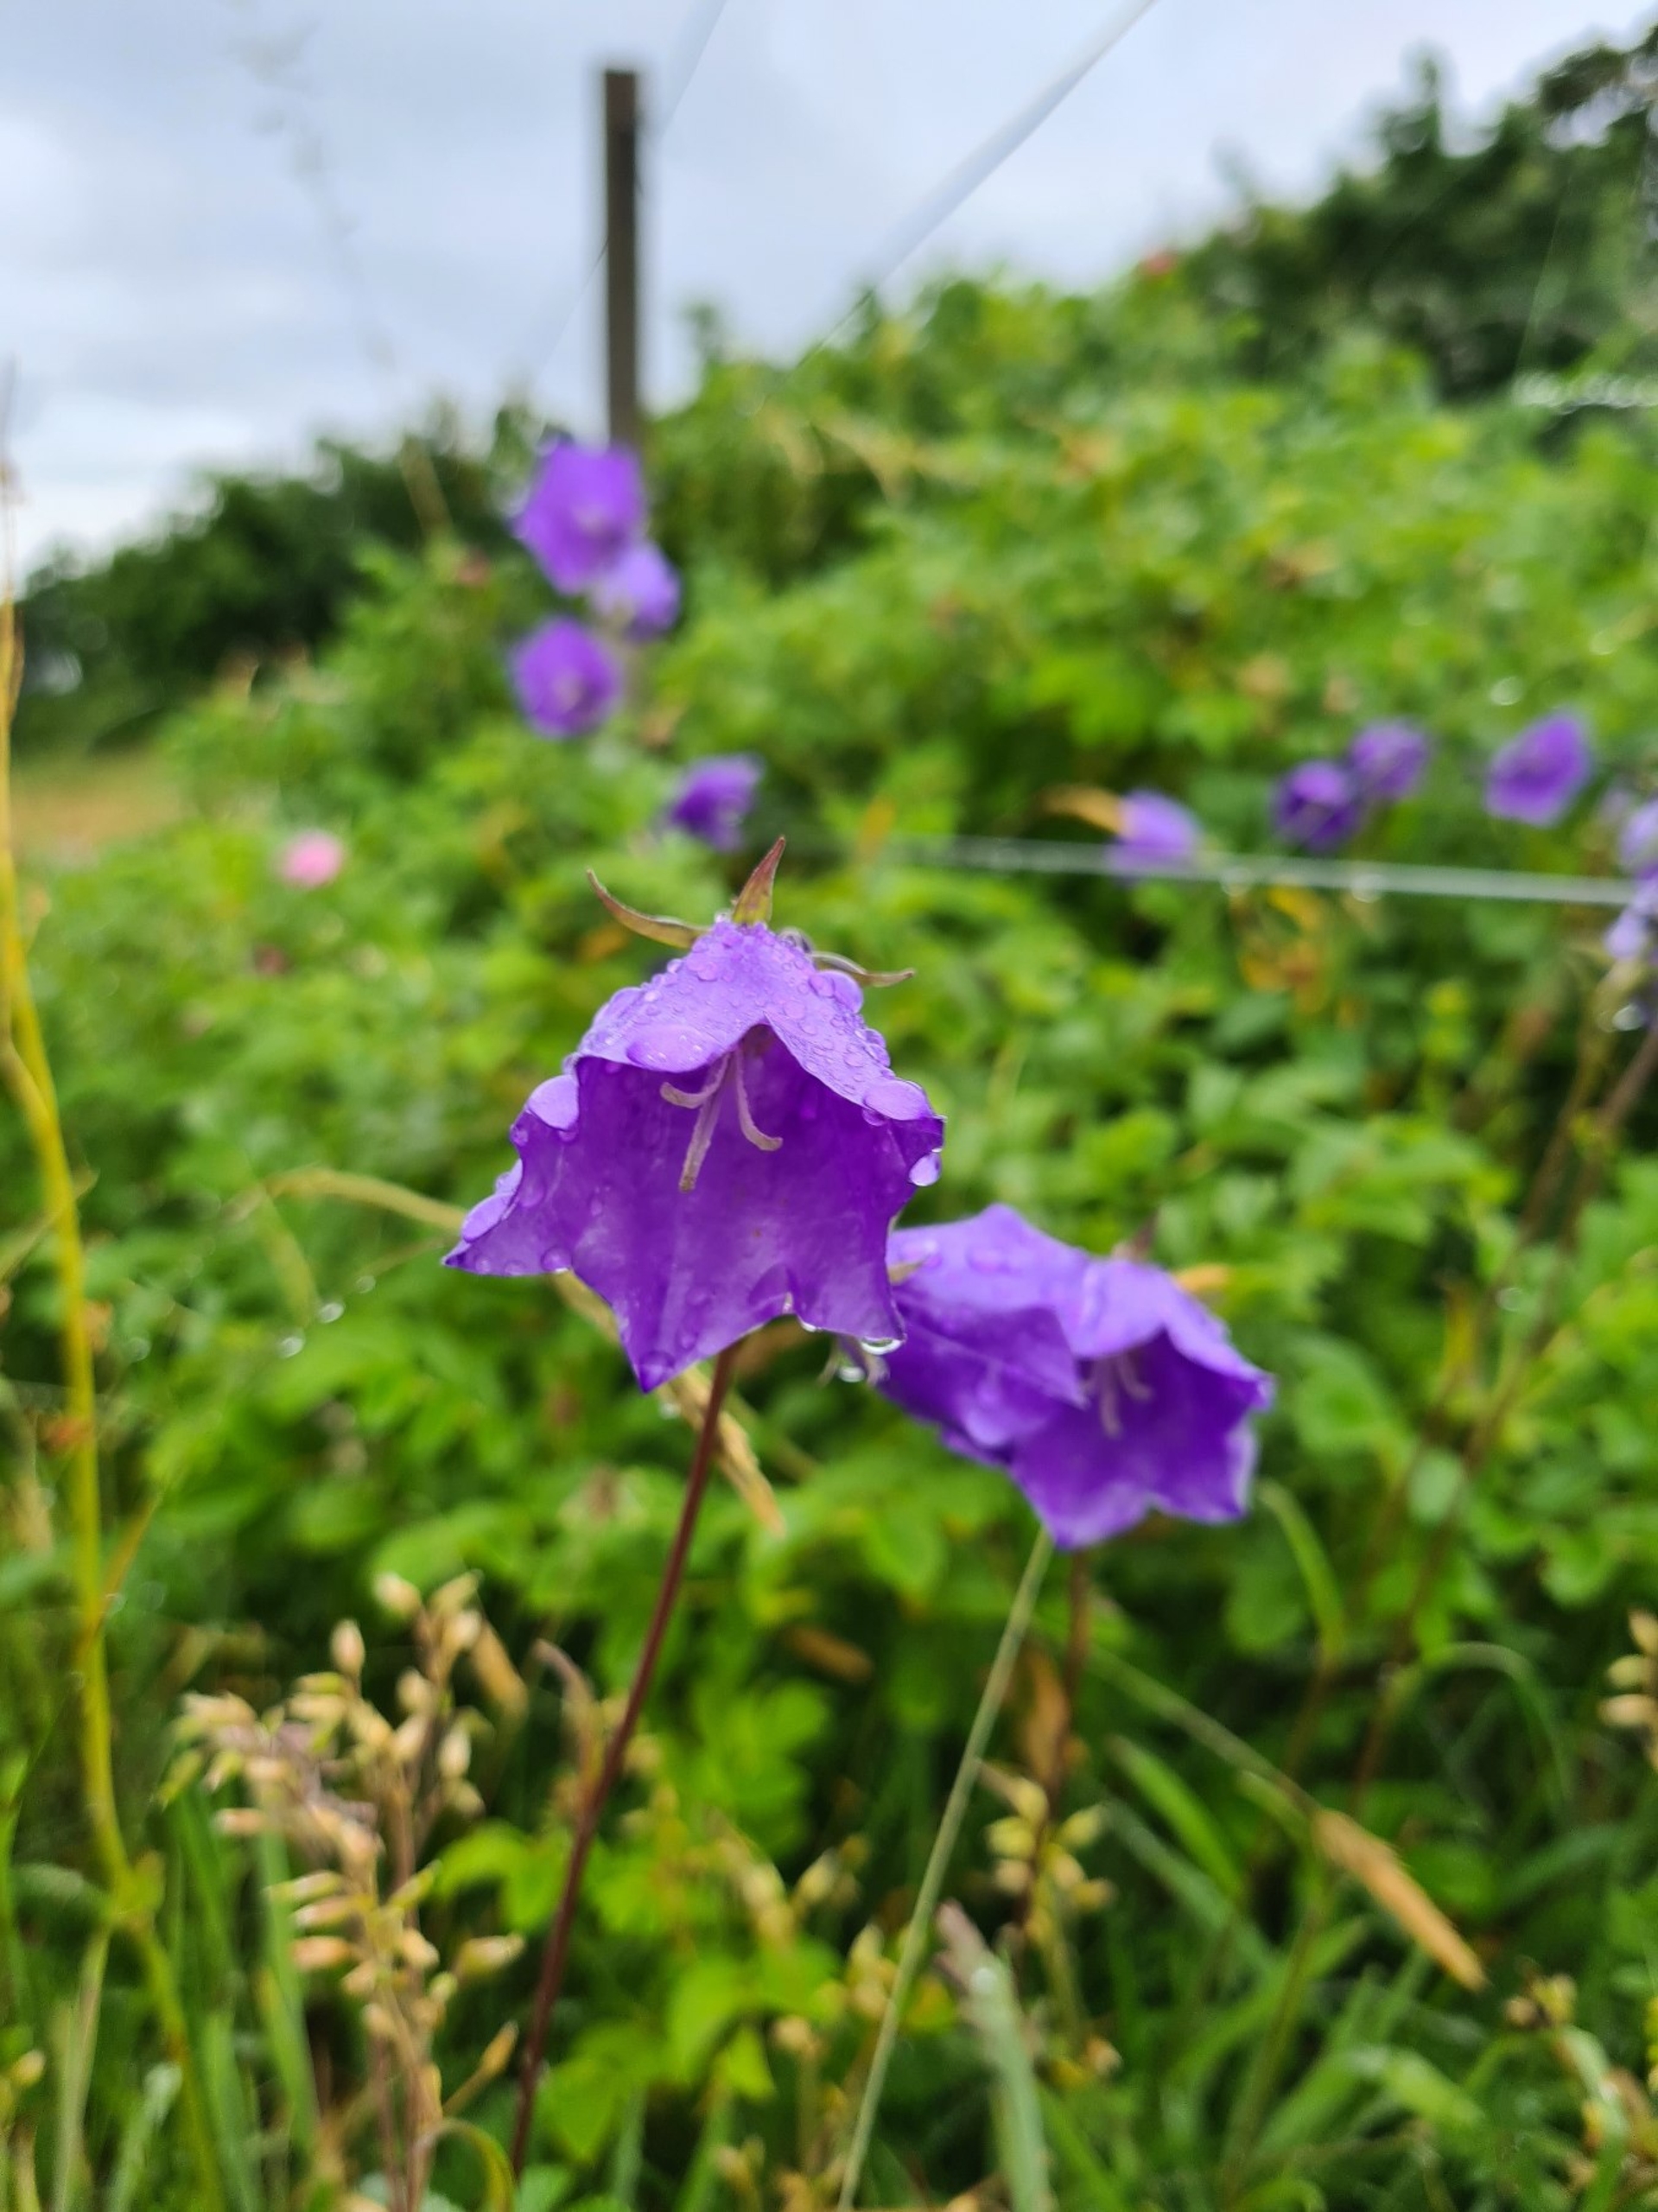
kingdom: Plantae
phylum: Tracheophyta
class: Magnoliopsida
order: Asterales
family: Campanulaceae
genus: Campanula
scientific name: Campanula persicifolia
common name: Smalbladet klokke
